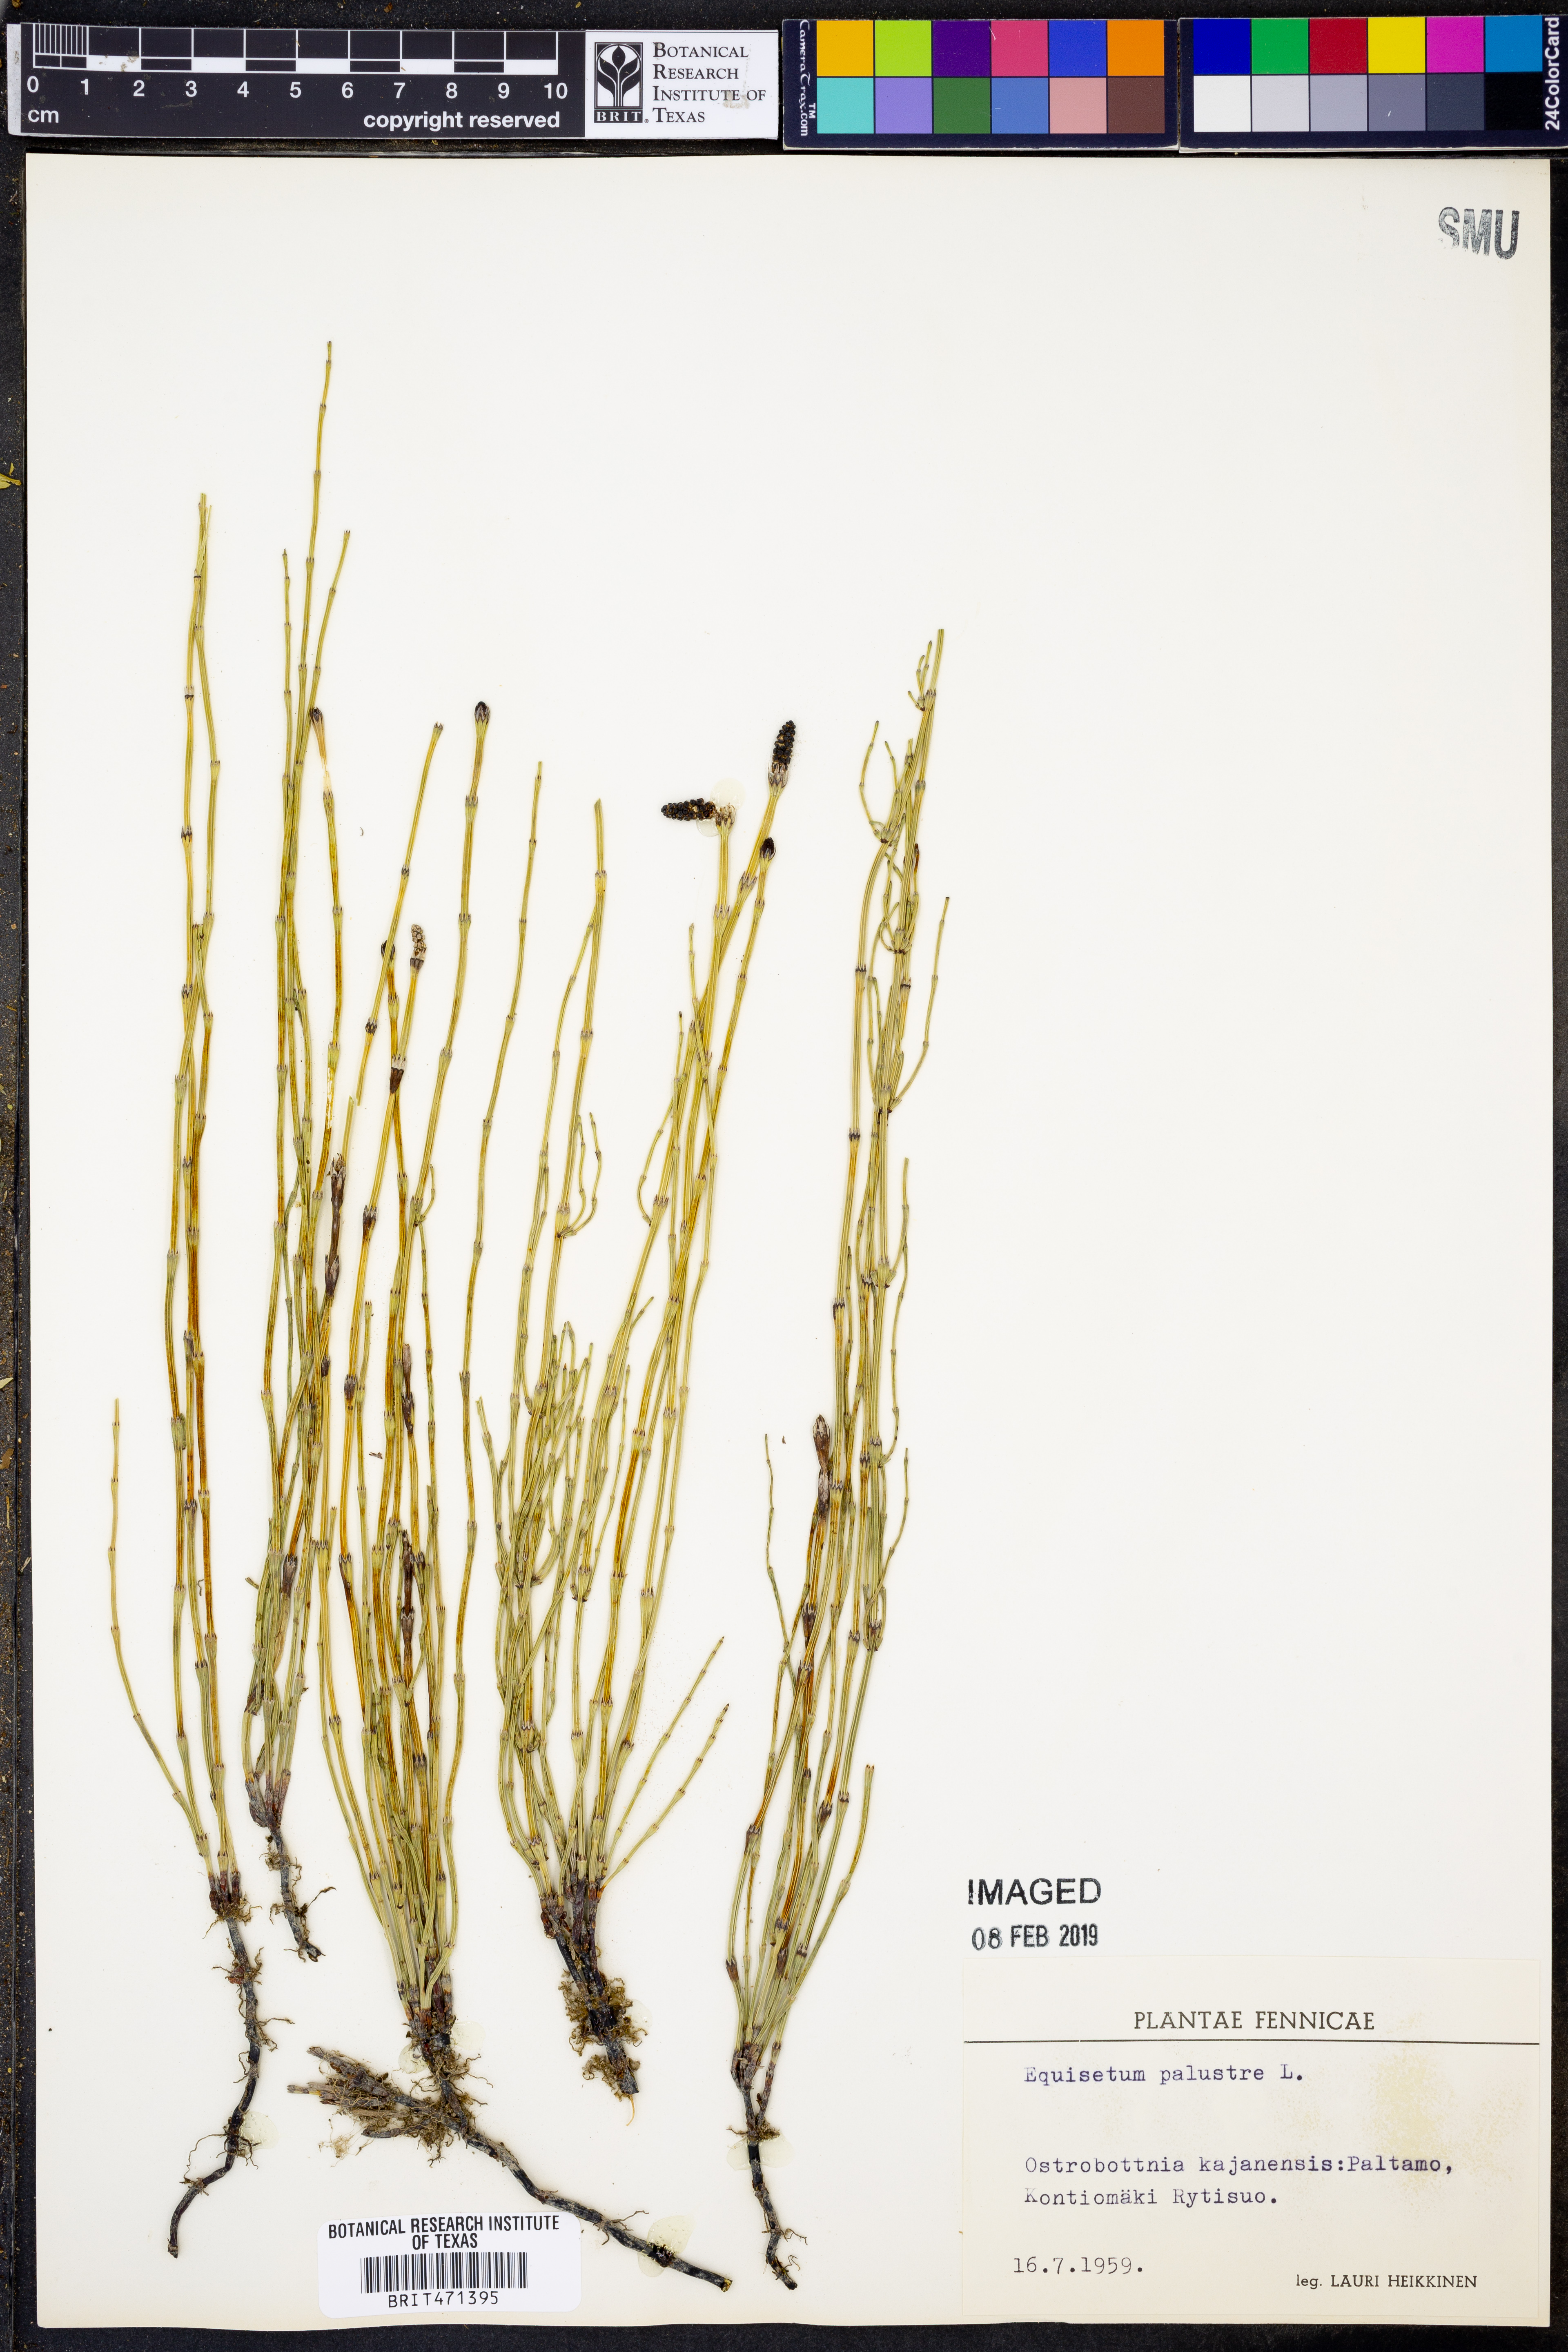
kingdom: Plantae
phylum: Tracheophyta
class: Polypodiopsida
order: Equisetales
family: Equisetaceae
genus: Equisetum
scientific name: Equisetum palustre
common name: Marsh horsetail
